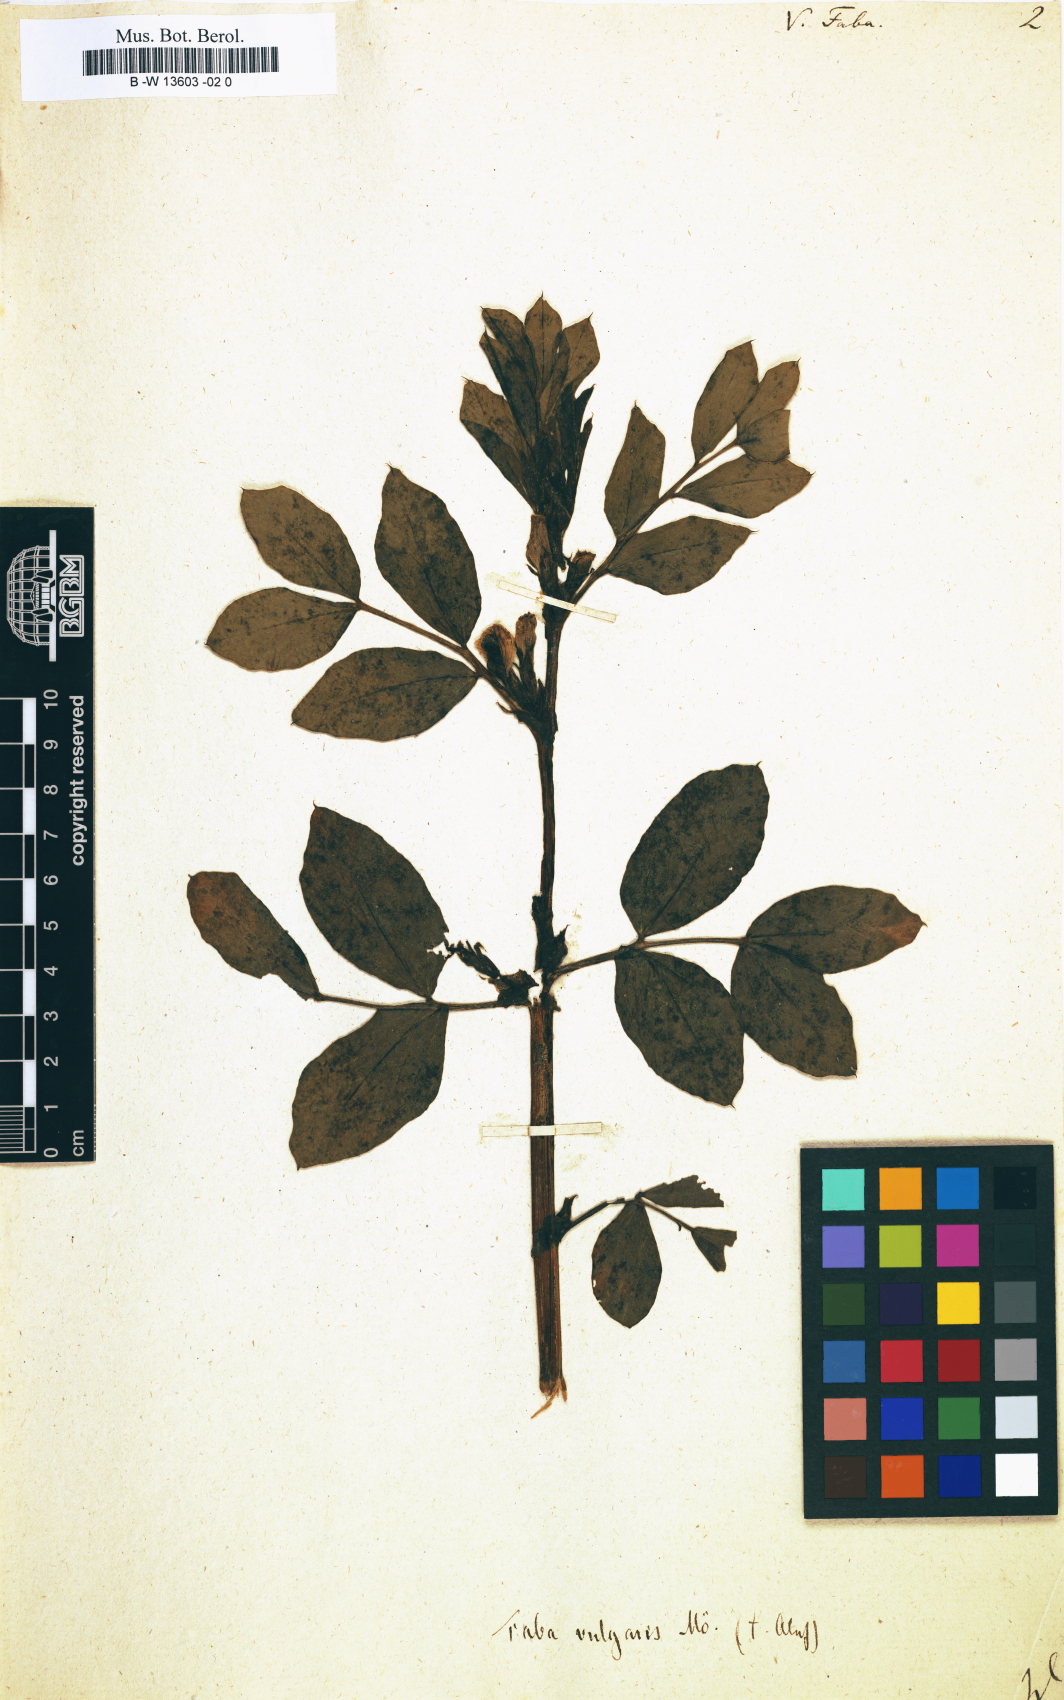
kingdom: Plantae
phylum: Tracheophyta
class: Magnoliopsida
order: Fabales
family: Fabaceae
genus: Vicia
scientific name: Vicia faba
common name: Broad bean
